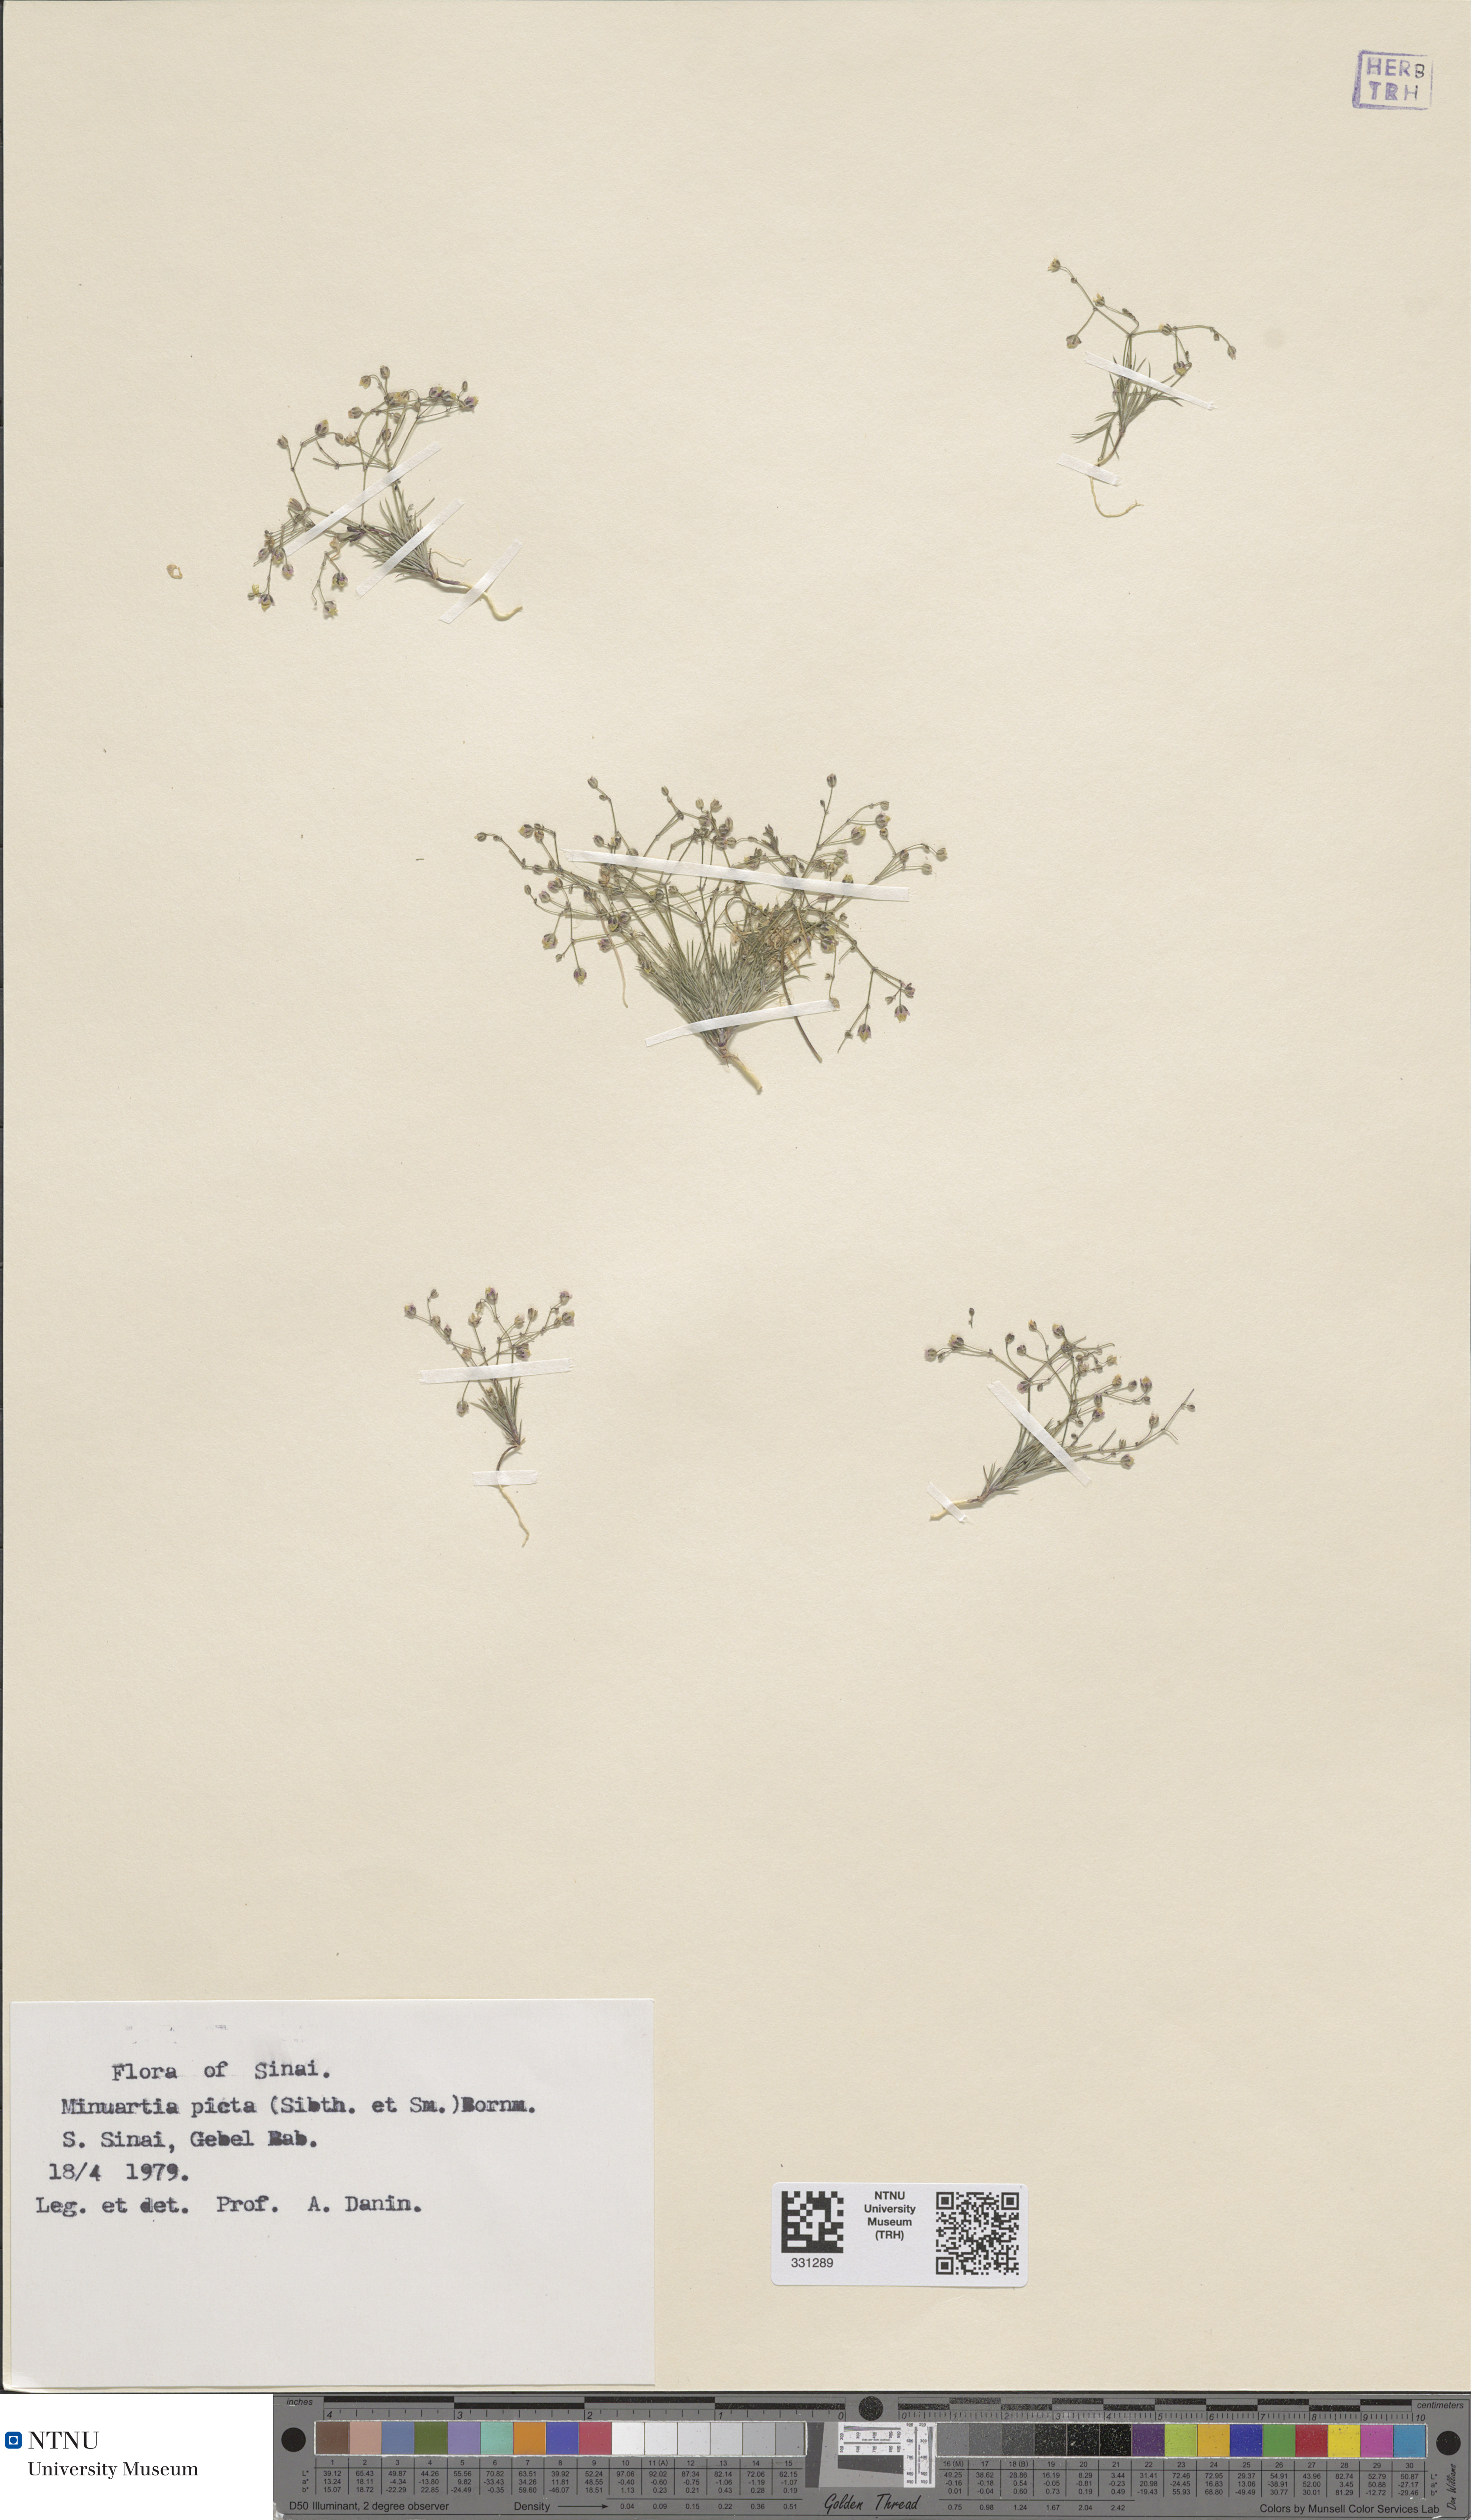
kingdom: Plantae
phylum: Tracheophyta
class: Magnoliopsida
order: Caryophyllales
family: Caryophyllaceae
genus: Eremogone
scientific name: Eremogone picta
